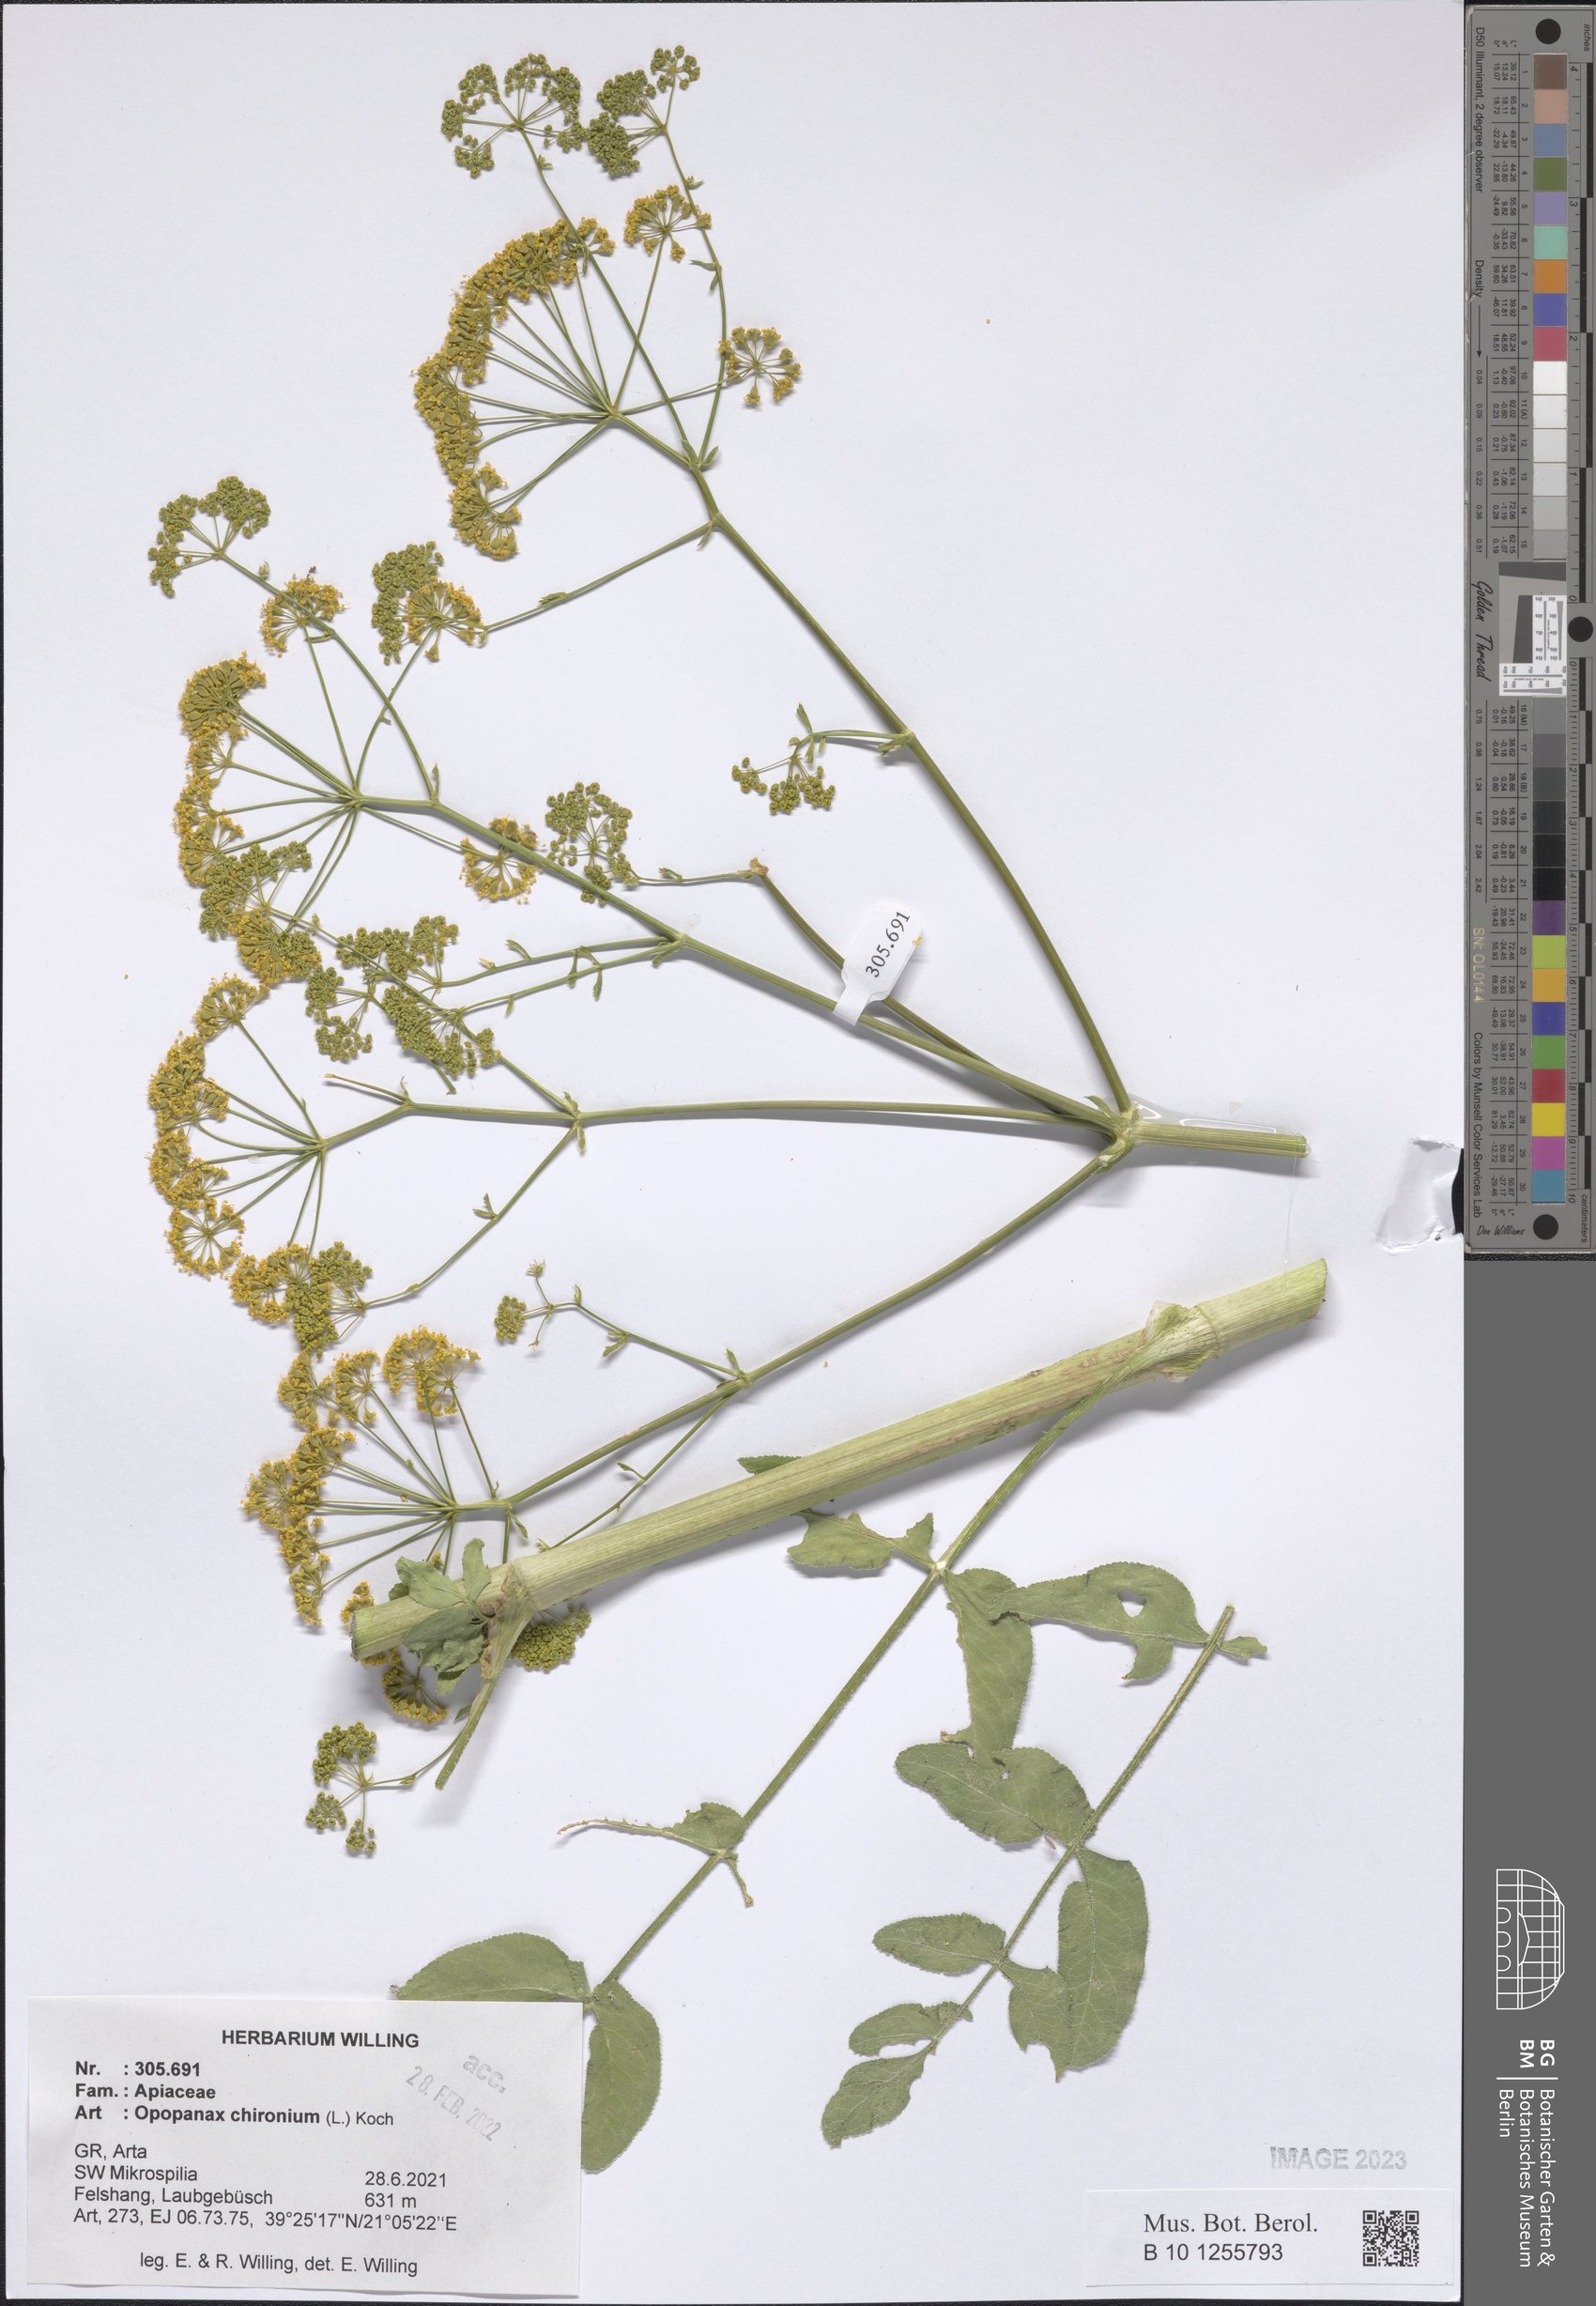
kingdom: Plantae
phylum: Tracheophyta
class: Magnoliopsida
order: Apiales
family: Apiaceae
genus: Opopanax
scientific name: Opopanax chironium
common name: Hercules-all-heal
